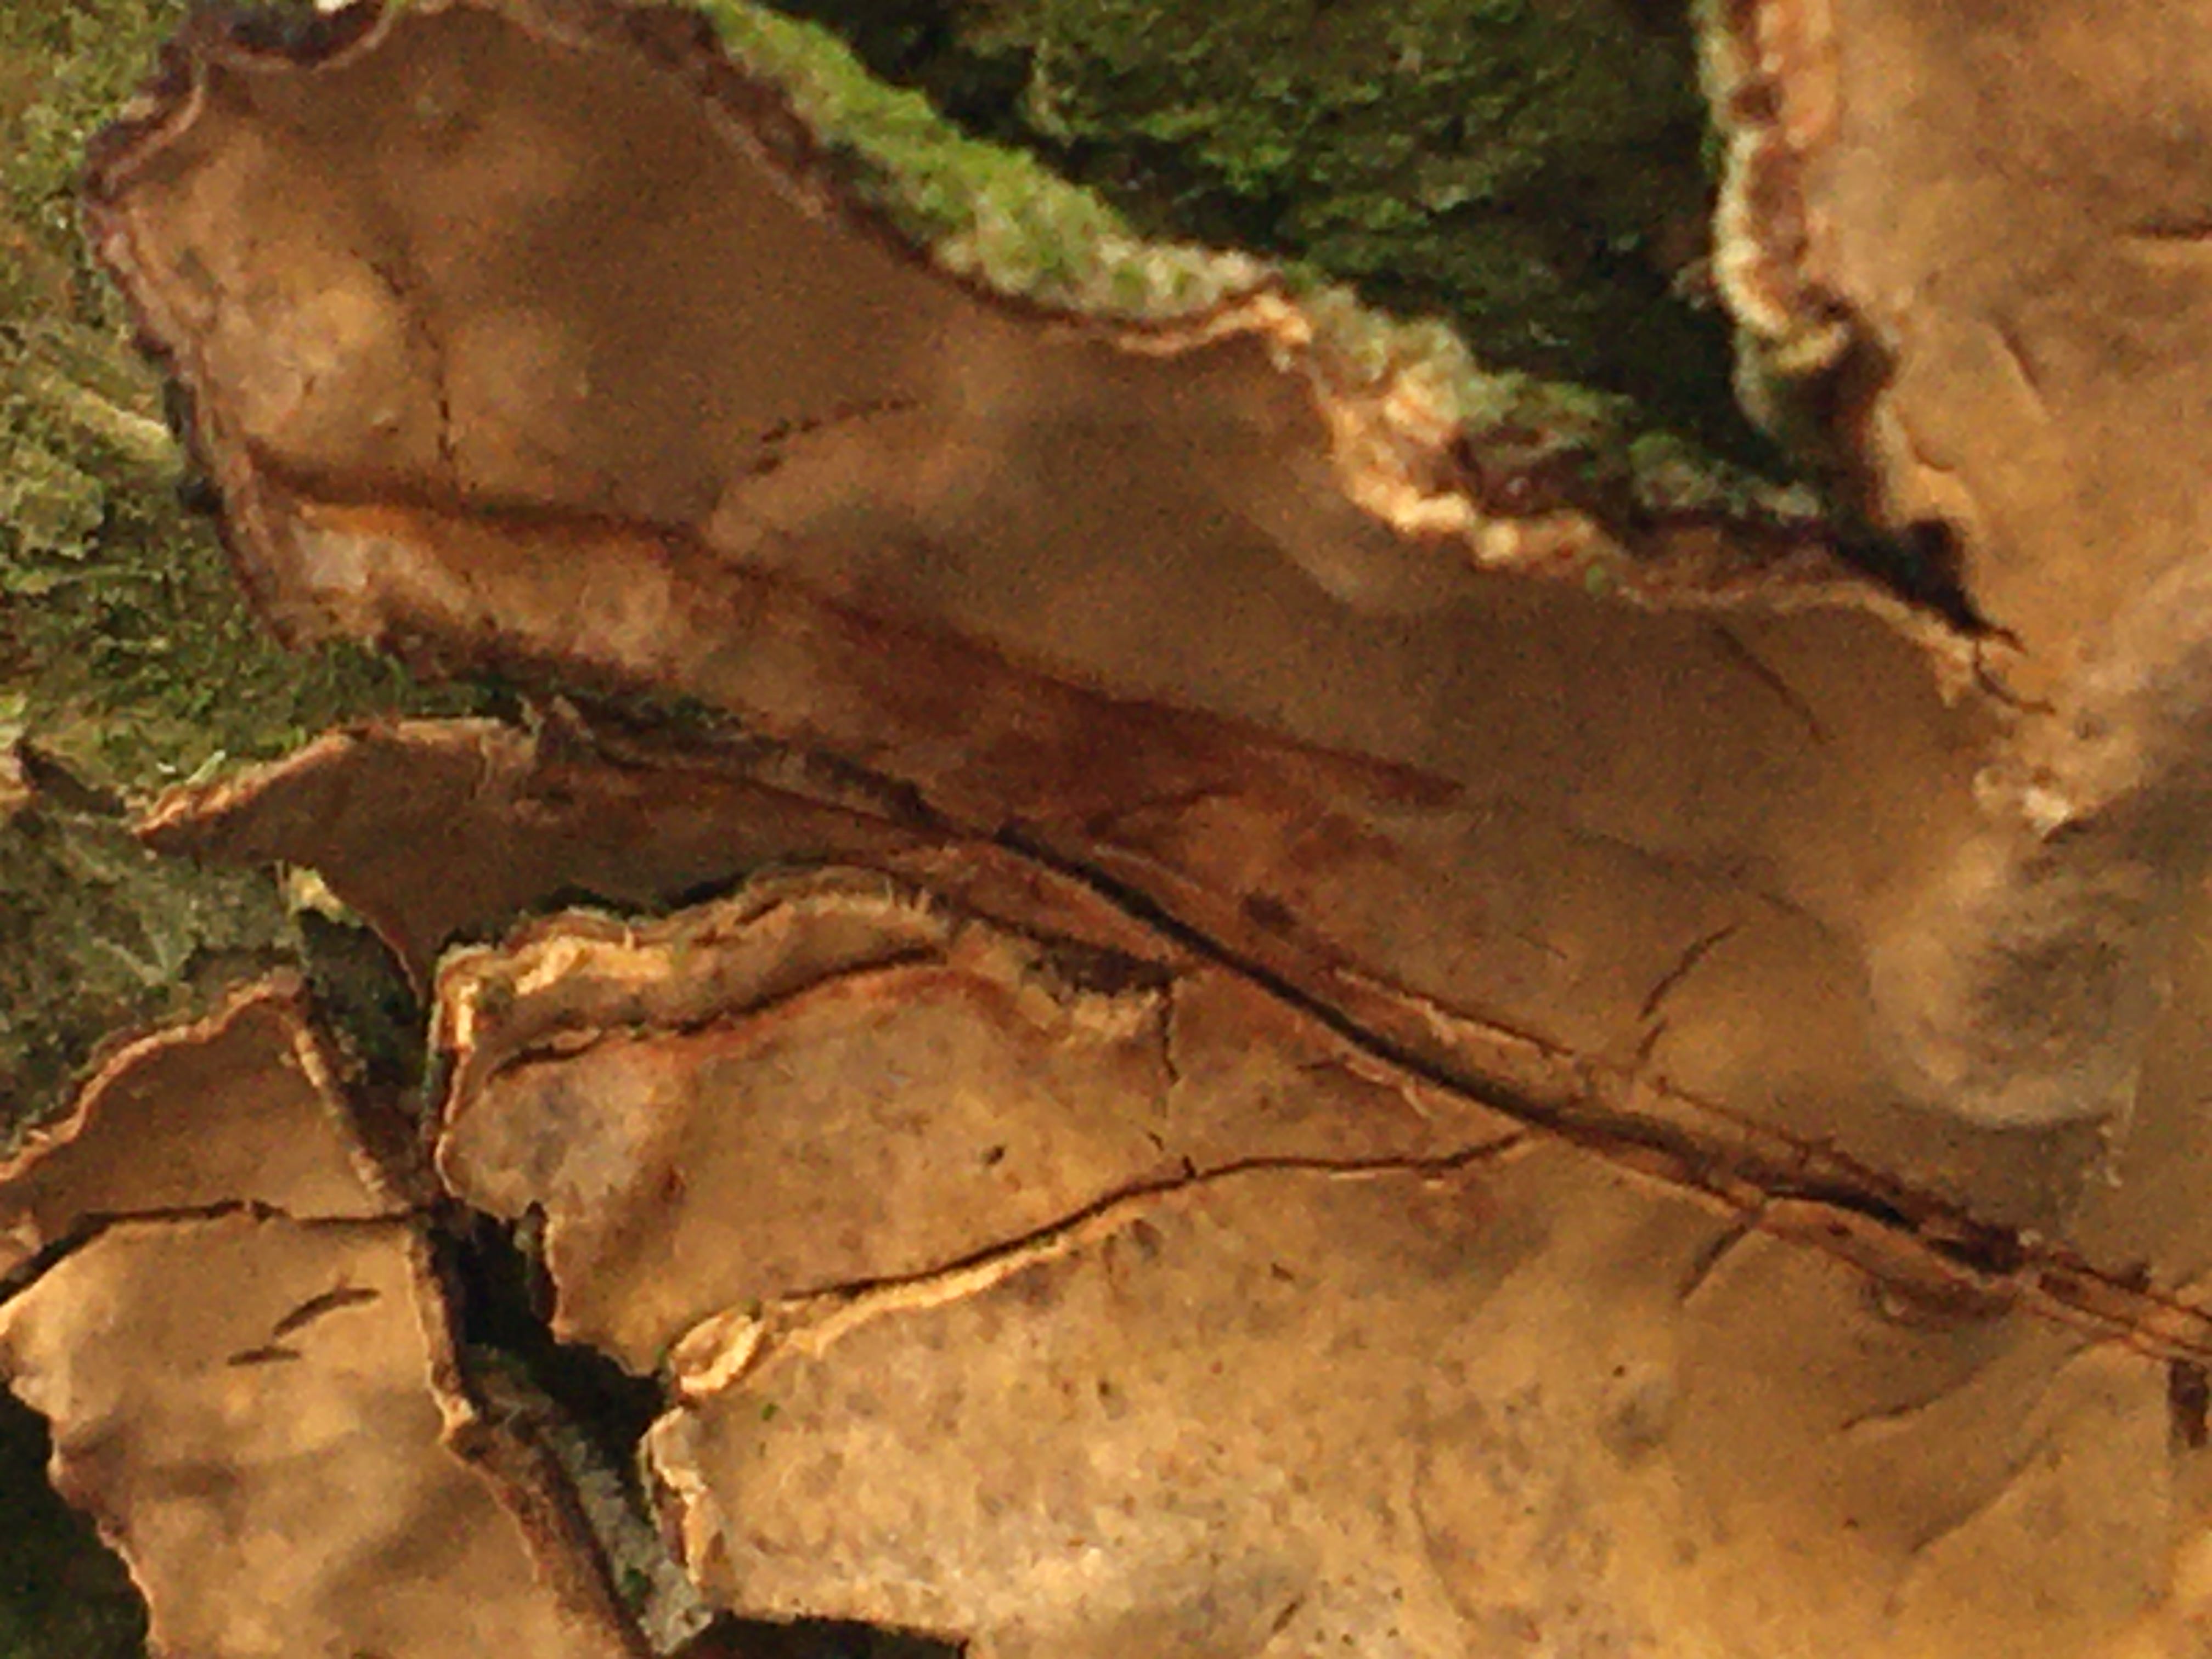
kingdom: Fungi
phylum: Basidiomycota
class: Agaricomycetes
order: Russulales
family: Stereaceae
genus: Stereum
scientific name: Stereum rugosum
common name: rynket lædersvamp
